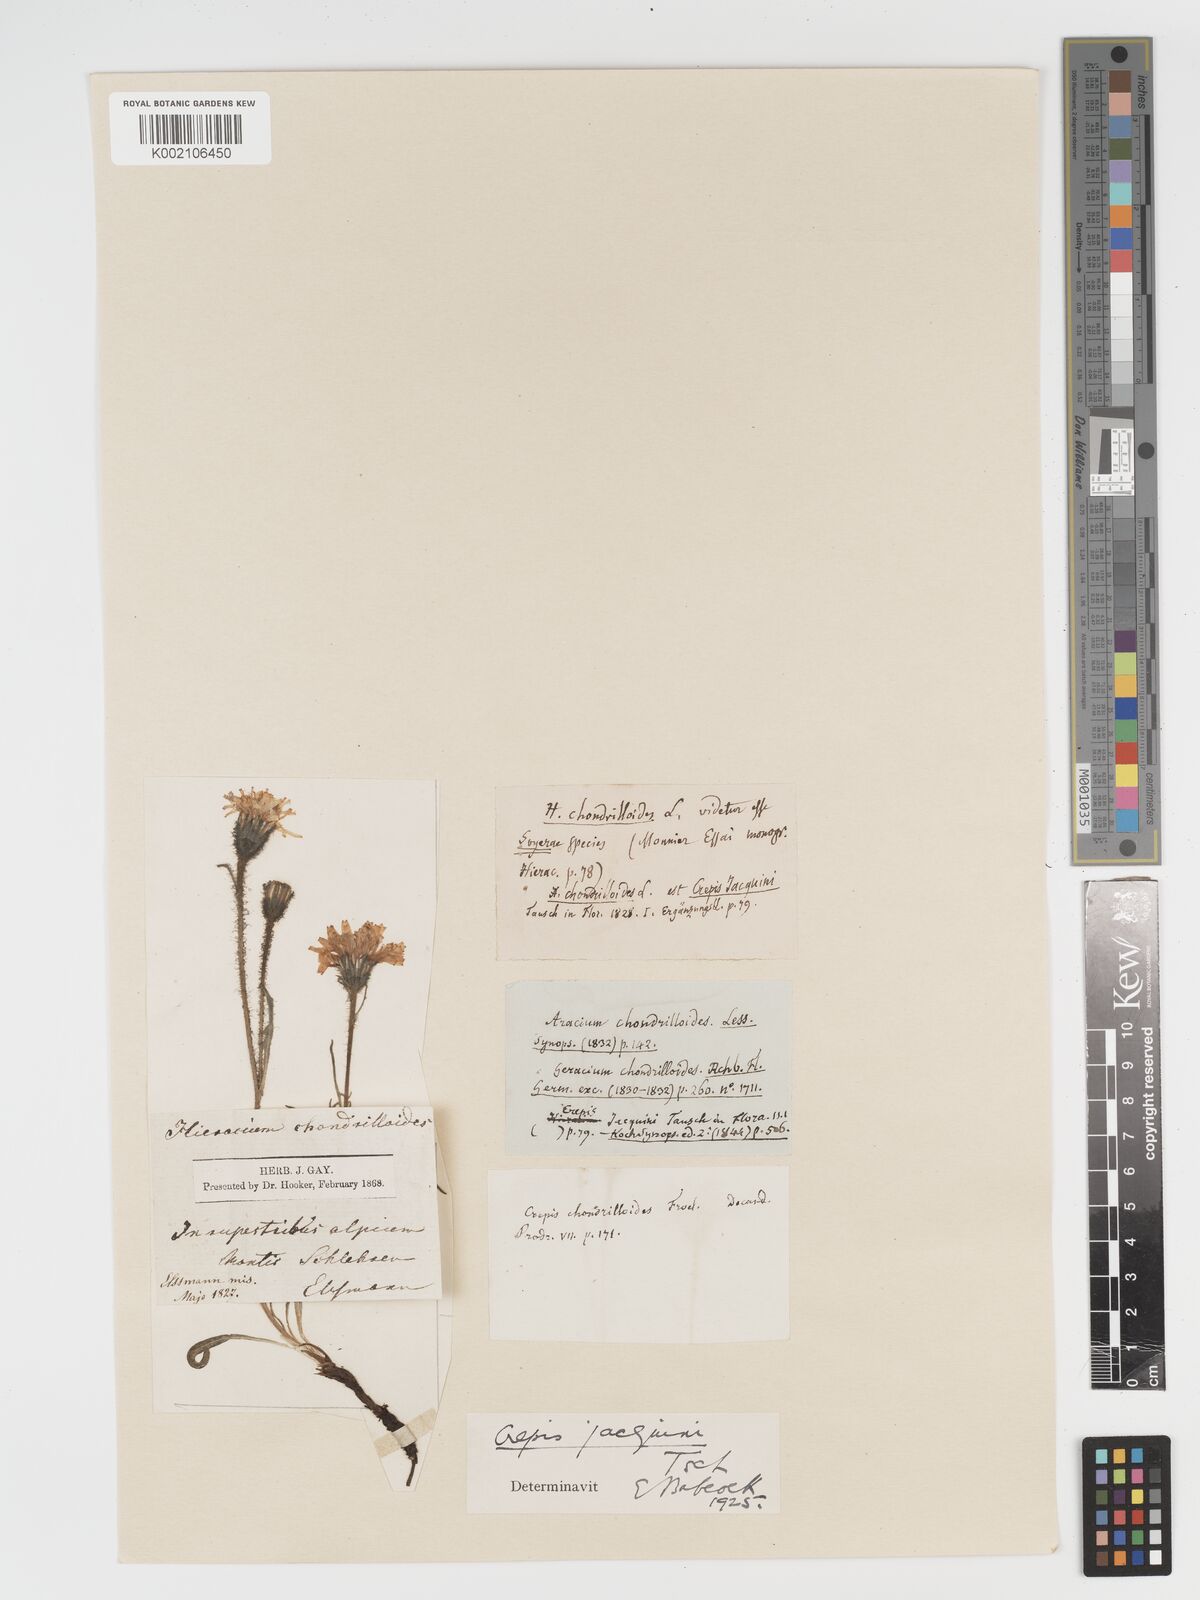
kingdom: Plantae
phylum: Tracheophyta
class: Magnoliopsida
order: Asterales
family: Asteraceae
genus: Crepis
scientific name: Crepis jacquinii
